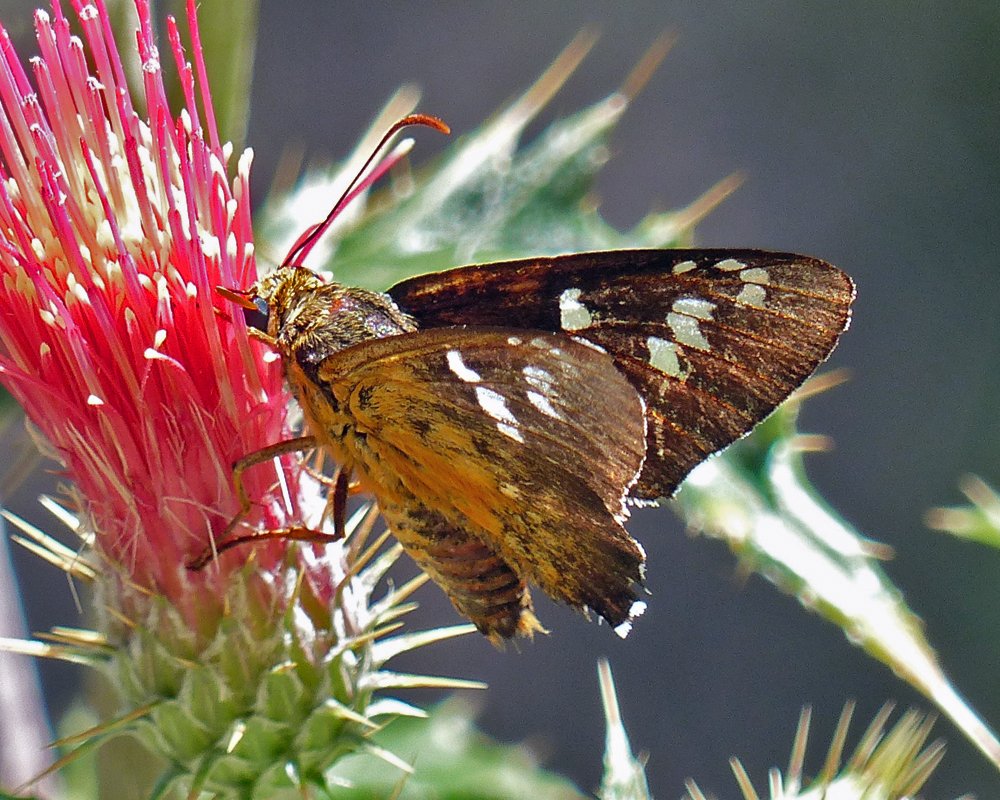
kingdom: Animalia
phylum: Arthropoda
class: Insecta
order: Lepidoptera
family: Hesperiidae
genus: Pyrrhopyge
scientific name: Pyrrhopyge araxes
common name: Dull Firetip
